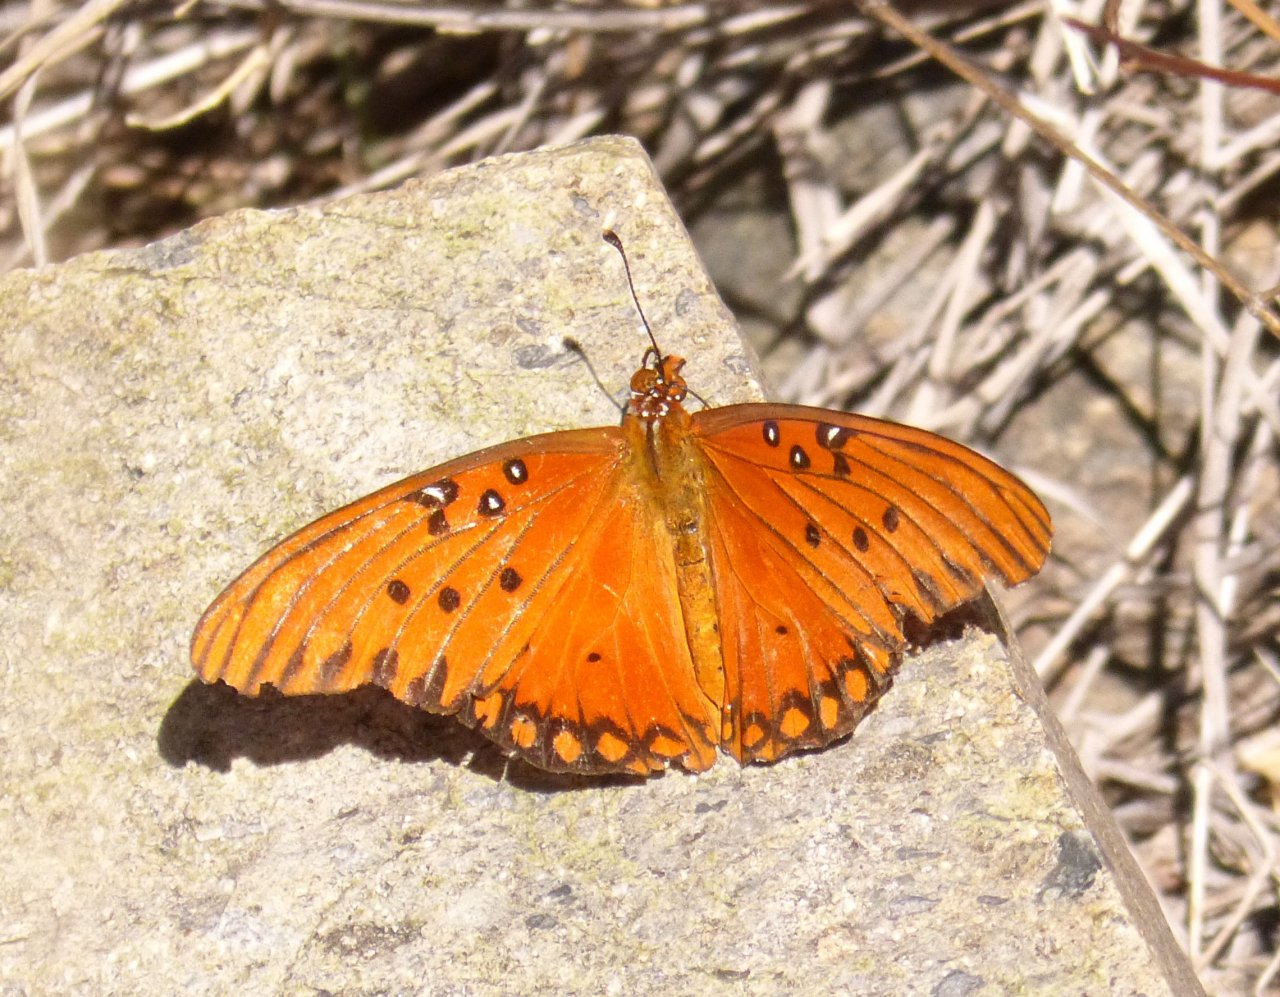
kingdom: Animalia
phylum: Arthropoda
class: Insecta
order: Lepidoptera
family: Nymphalidae
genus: Dione
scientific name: Dione vanillae
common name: Gulf Fritillary
